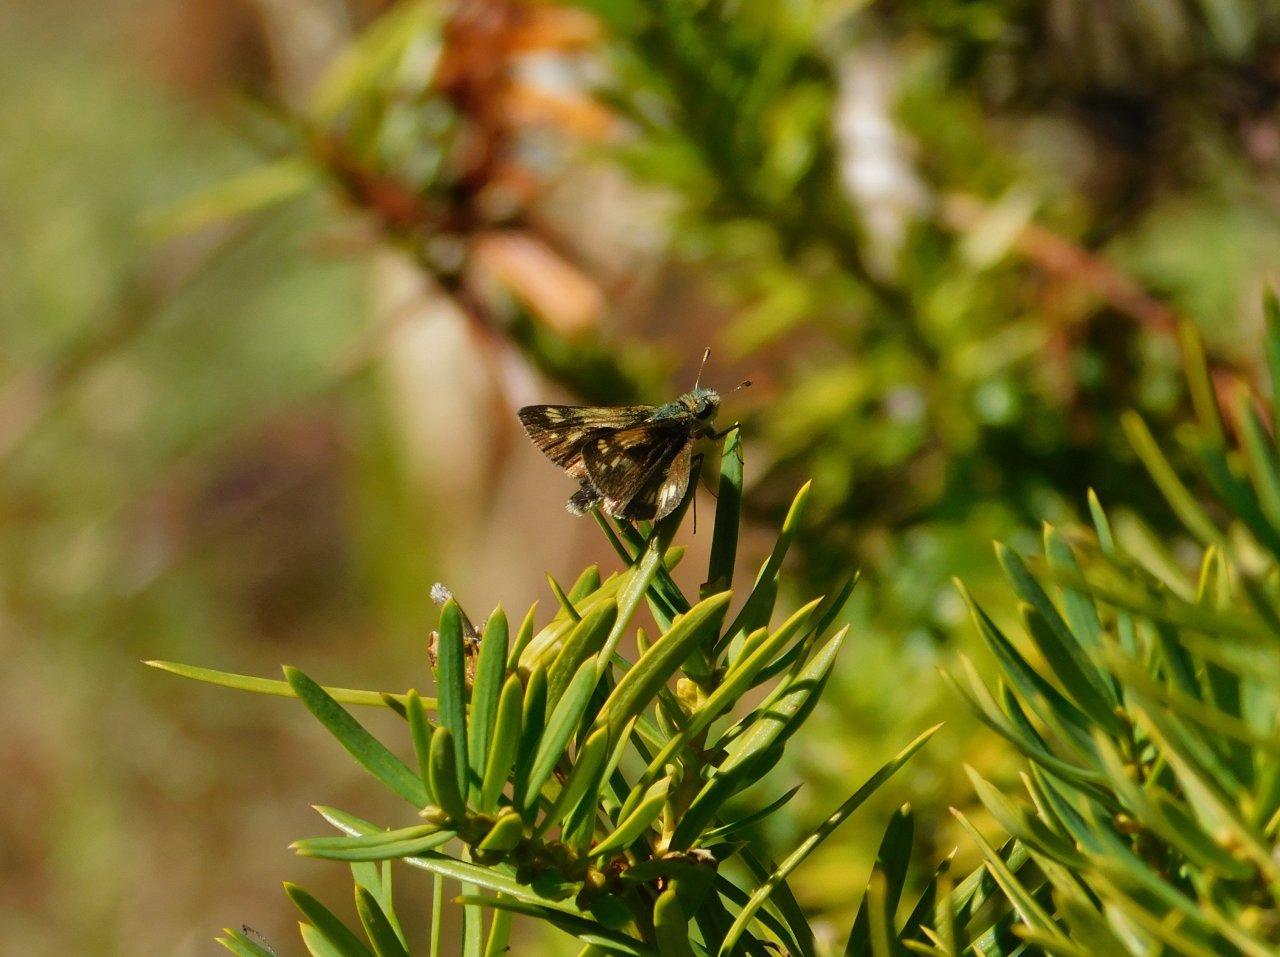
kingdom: Animalia
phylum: Arthropoda
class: Insecta
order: Lepidoptera
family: Hesperiidae
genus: Polites
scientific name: Polites coras
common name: Peck's Skipper
